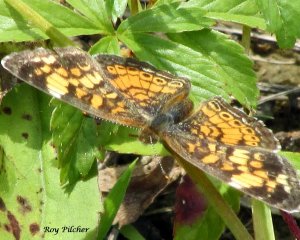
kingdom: Animalia
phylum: Arthropoda
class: Insecta
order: Lepidoptera
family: Nymphalidae
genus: Phyciodes
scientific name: Phyciodes tharos
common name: Pearl Crescent
